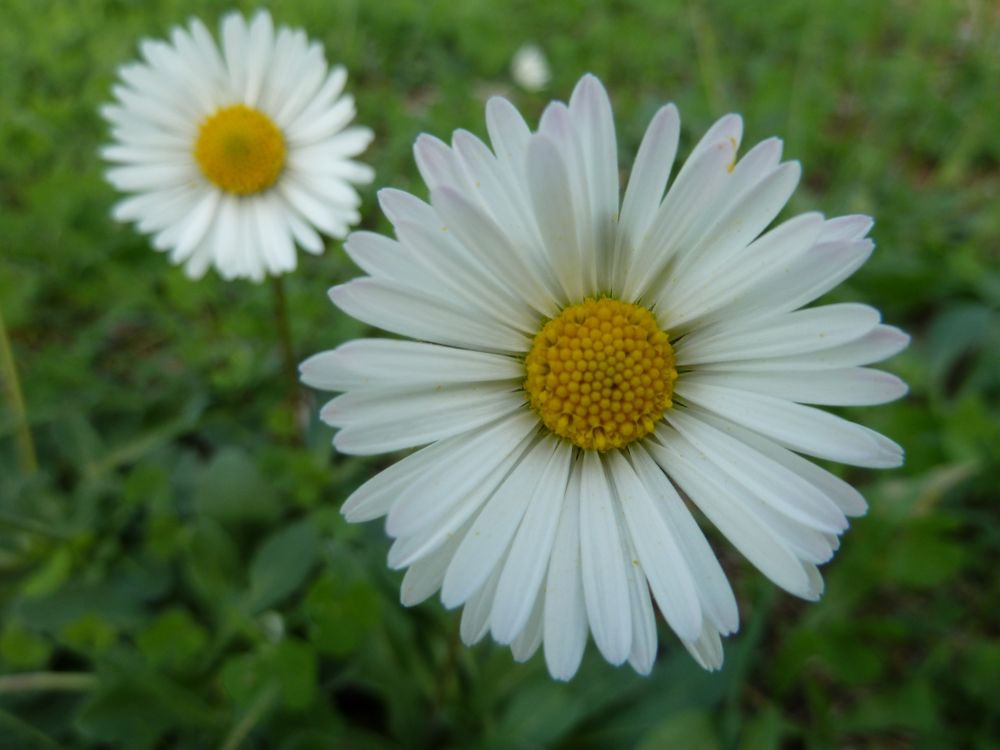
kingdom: Plantae
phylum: Tracheophyta
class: Magnoliopsida
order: Asterales
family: Asteraceae
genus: Bellis
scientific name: Bellis annua
